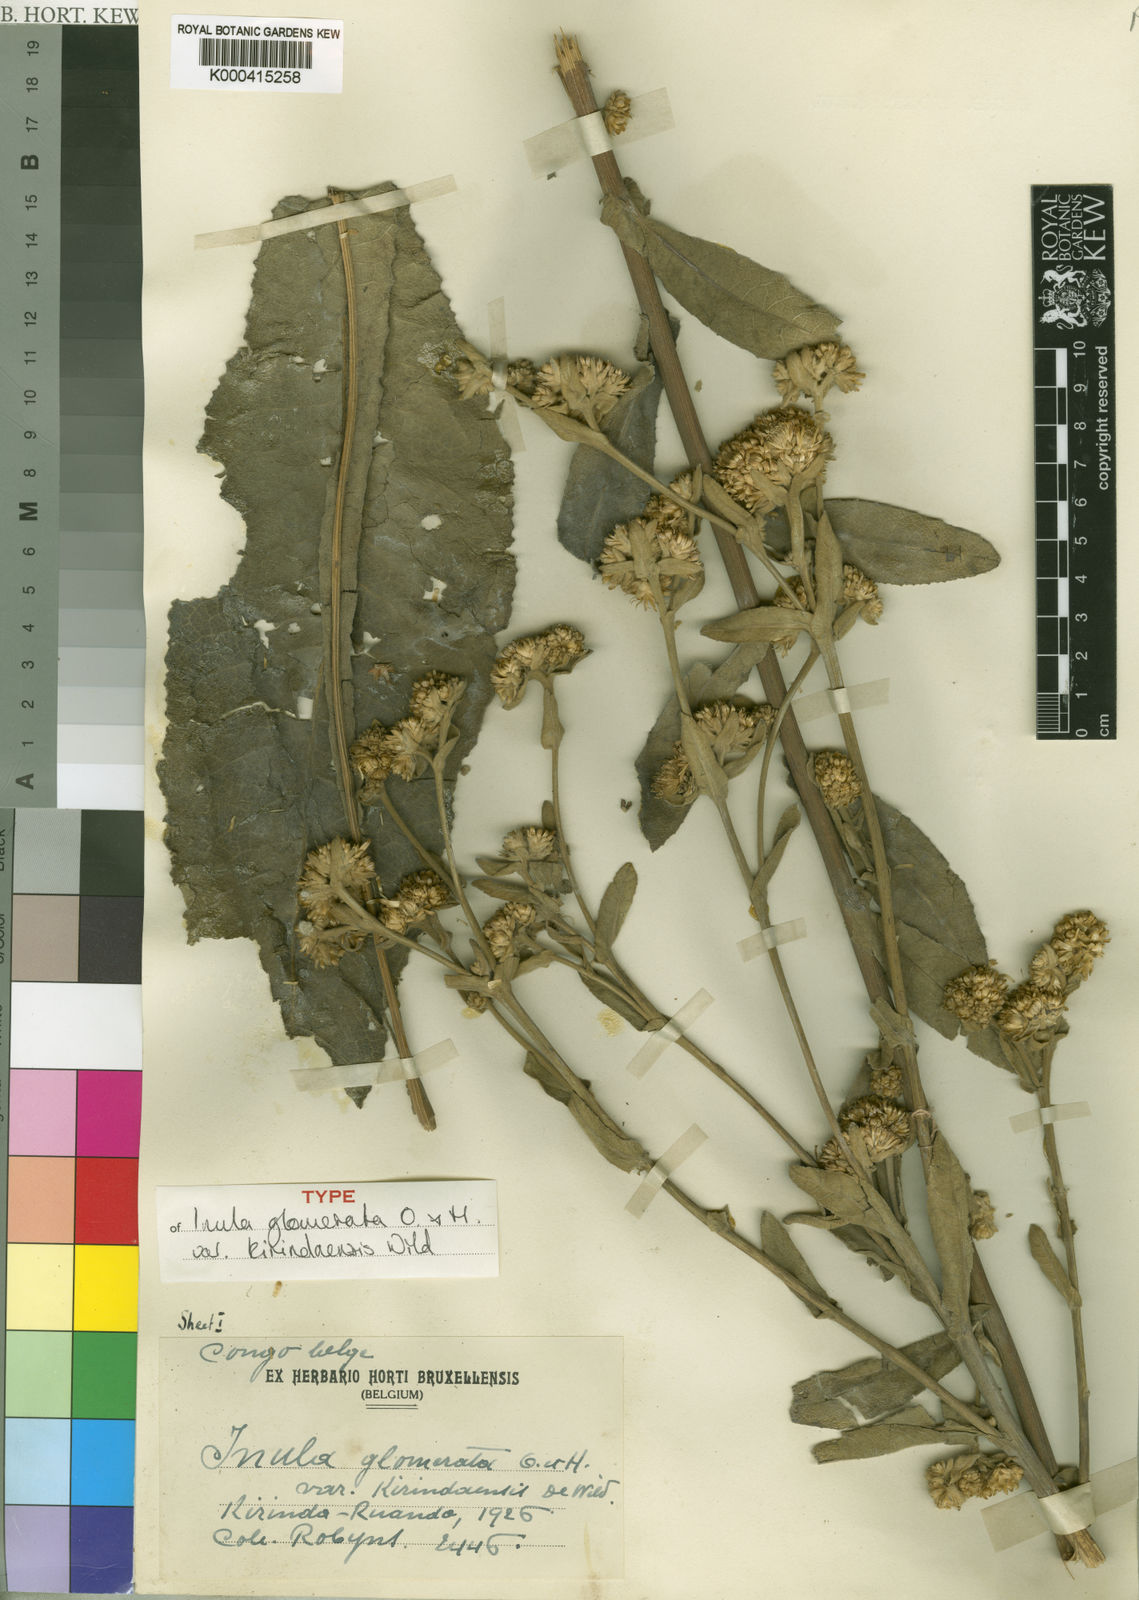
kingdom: Plantae
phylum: Tracheophyta
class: Magnoliopsida
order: Asterales
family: Asteraceae
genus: Inula
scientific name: Inula glomerata
